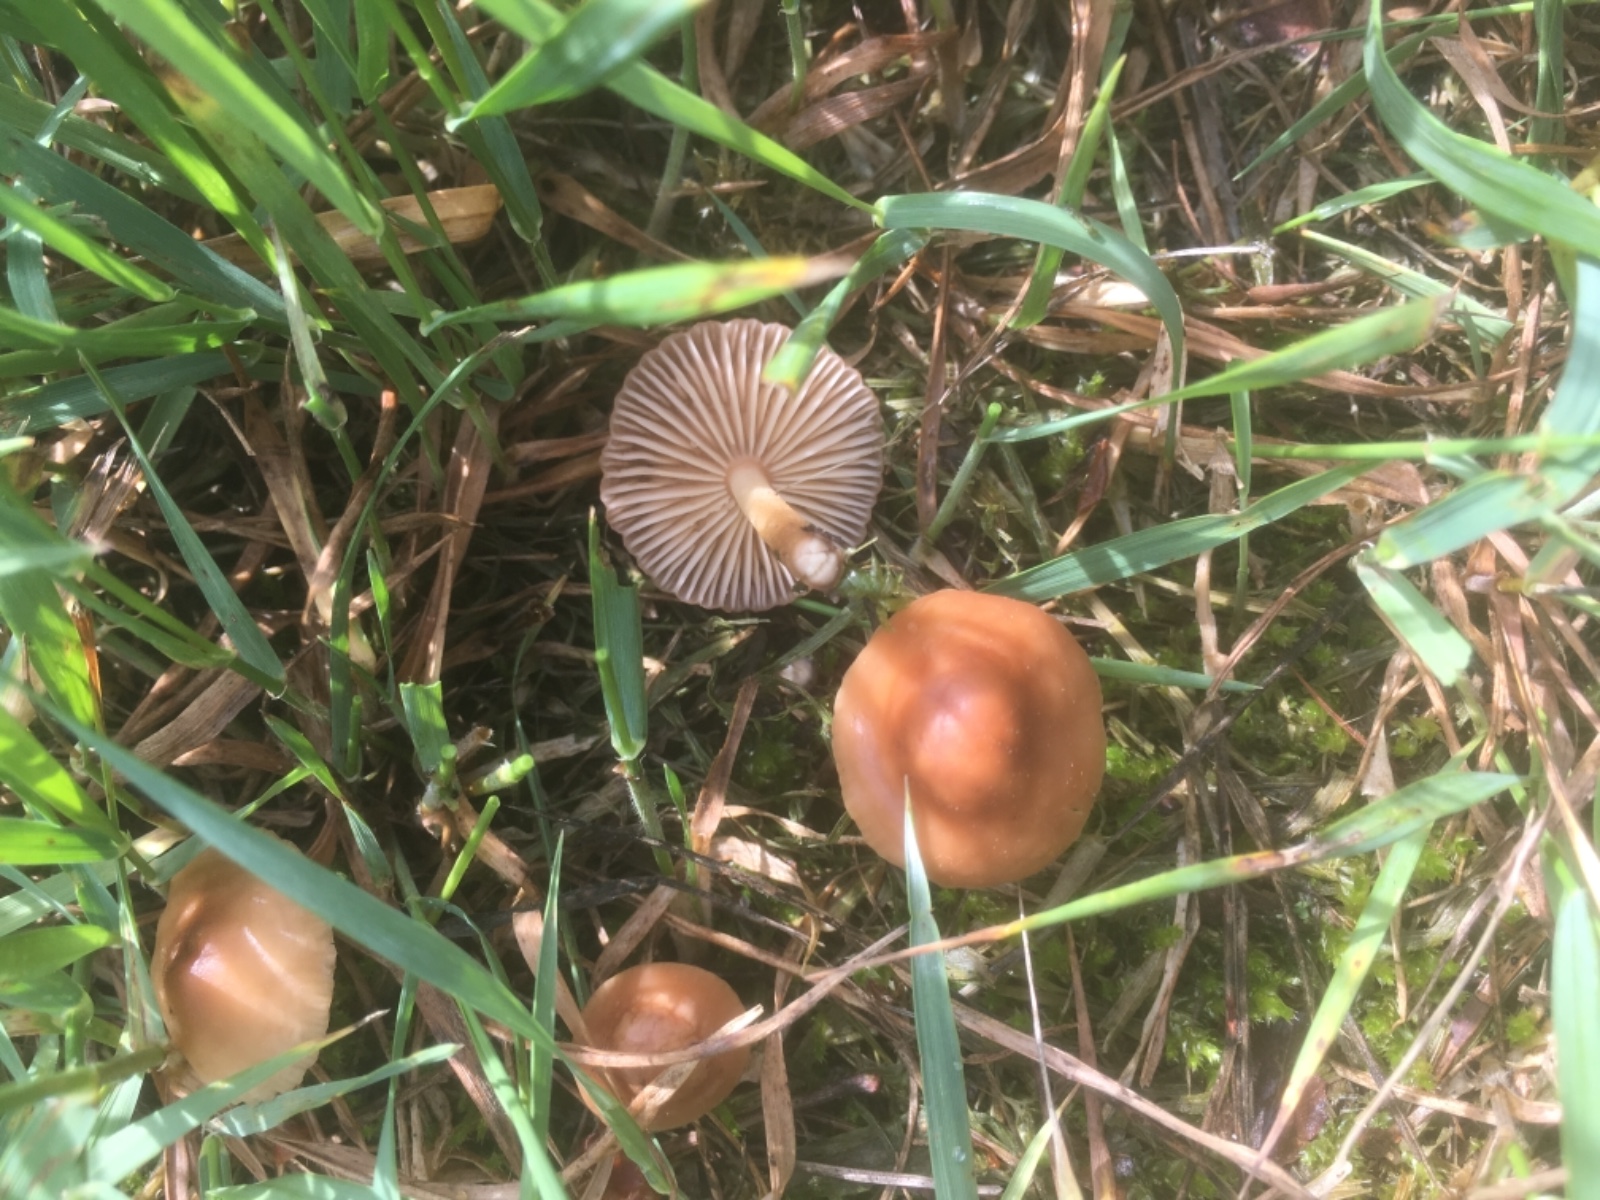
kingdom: Fungi
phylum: Basidiomycota
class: Agaricomycetes
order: Agaricales
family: Marasmiaceae
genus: Marasmius
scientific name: Marasmius oreades
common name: elledans-bruskhat
